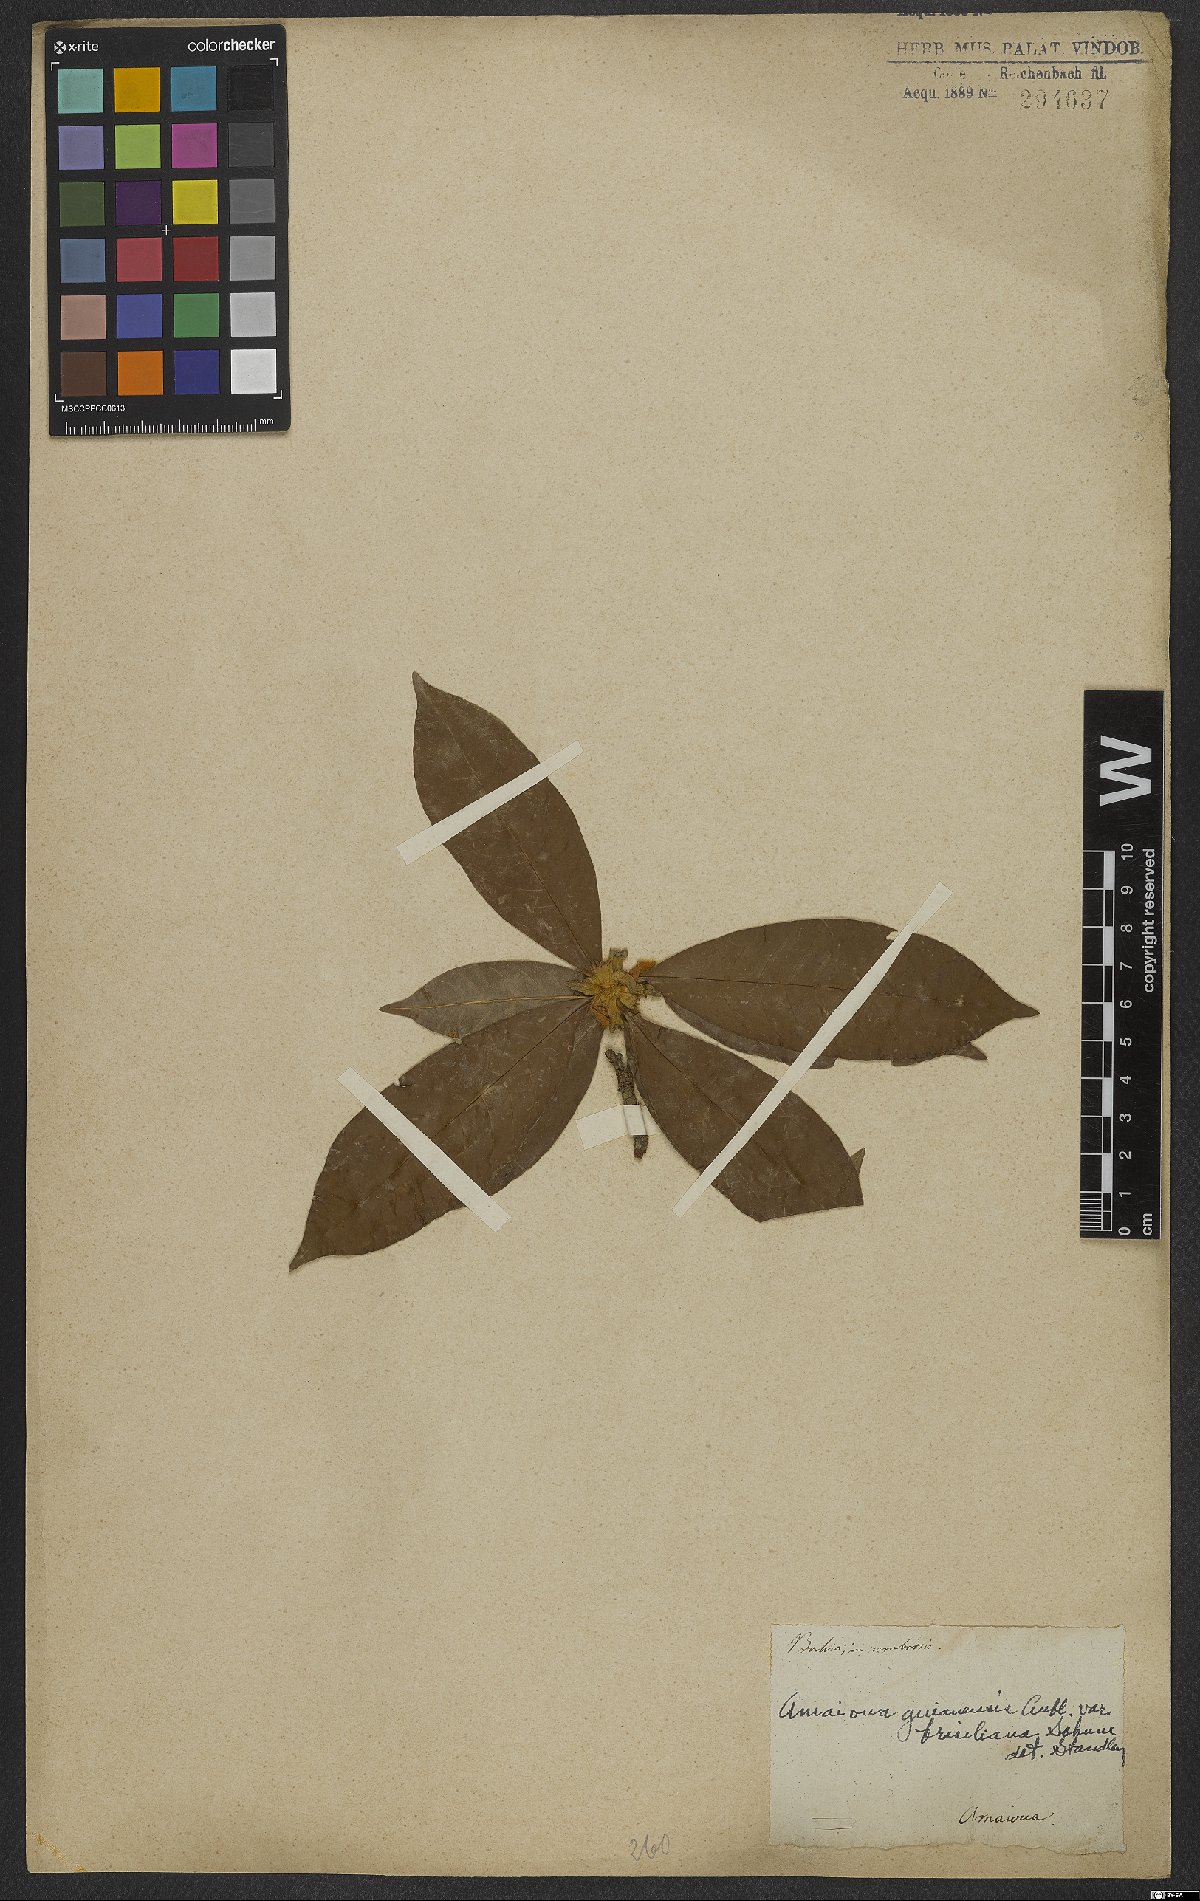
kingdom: Plantae
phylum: Tracheophyta
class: Magnoliopsida
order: Gentianales
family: Rubiaceae
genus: Amaioua
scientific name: Amaioua guianensis
